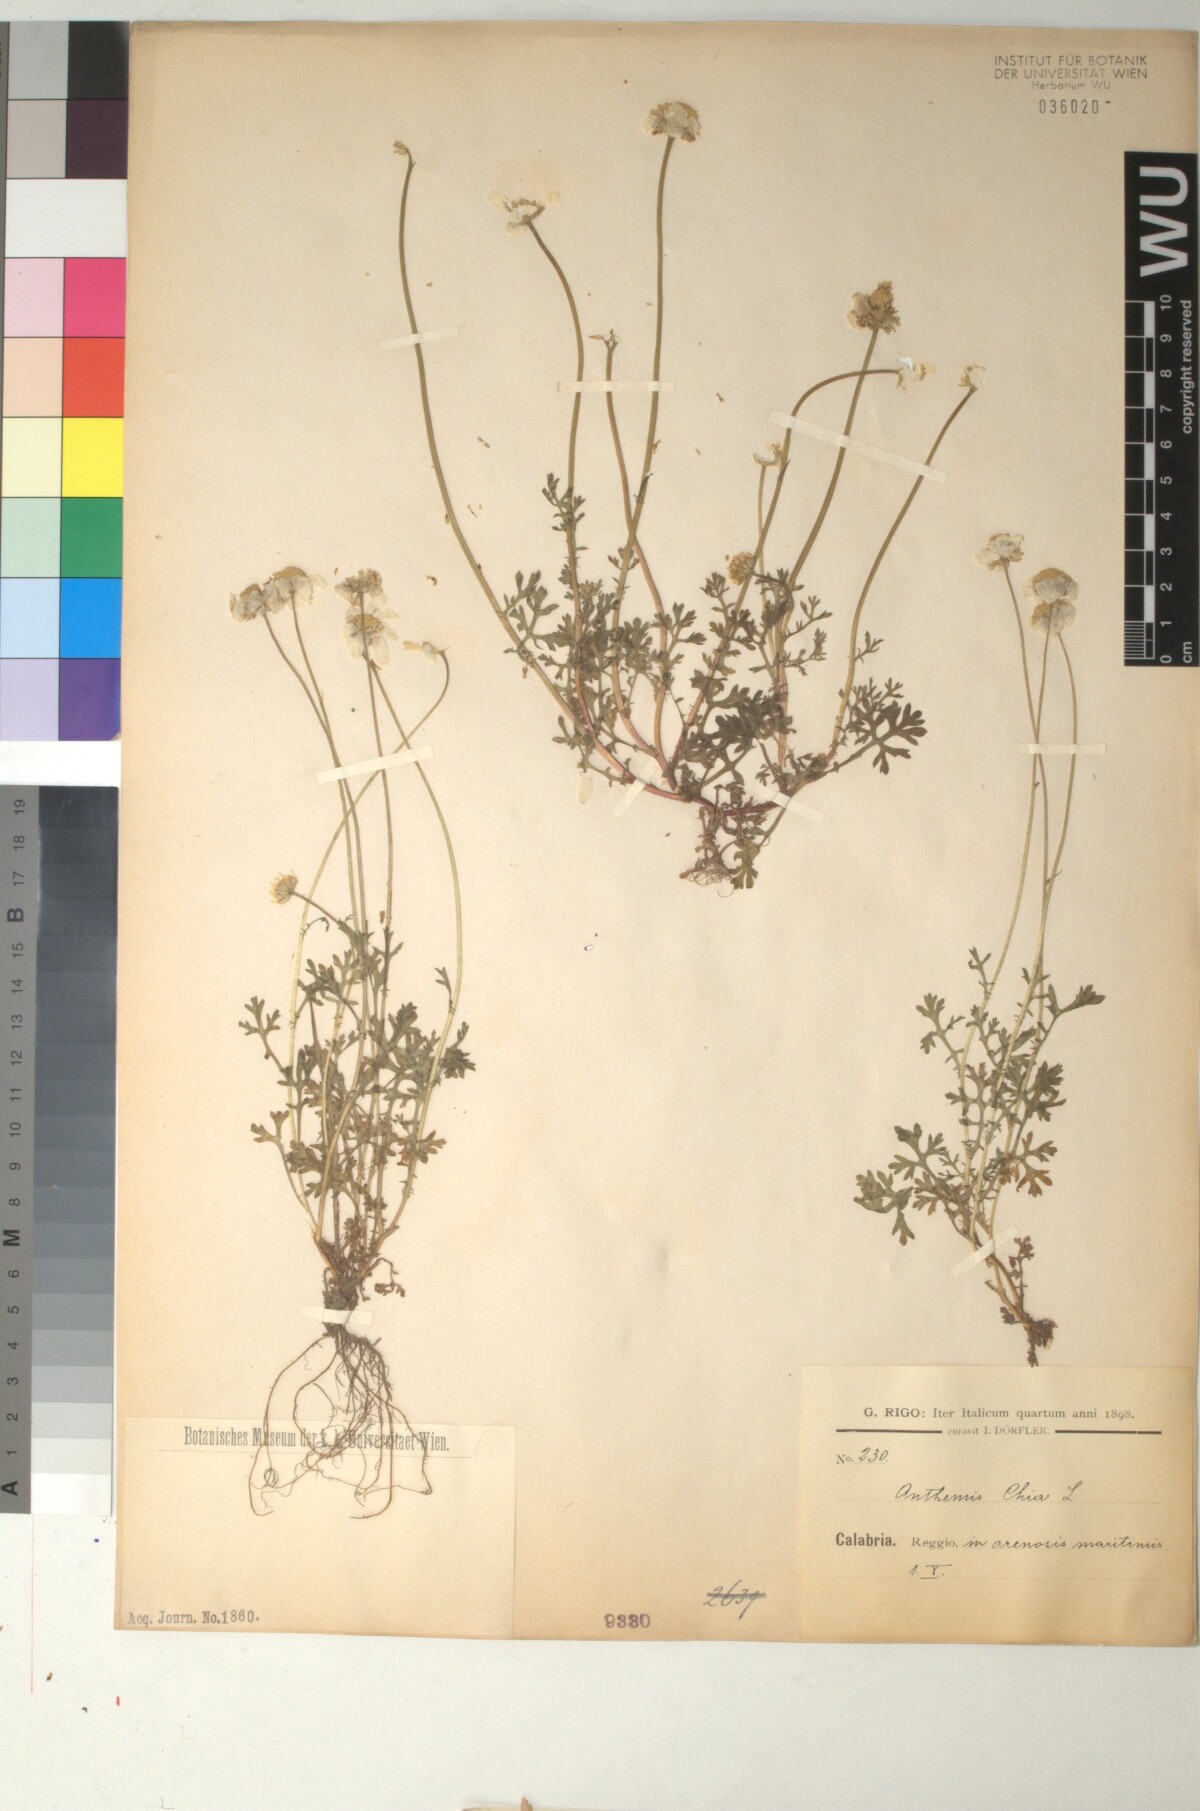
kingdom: Plantae
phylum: Tracheophyta
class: Magnoliopsida
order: Asterales
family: Asteraceae
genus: Anthemis
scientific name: Anthemis chia
